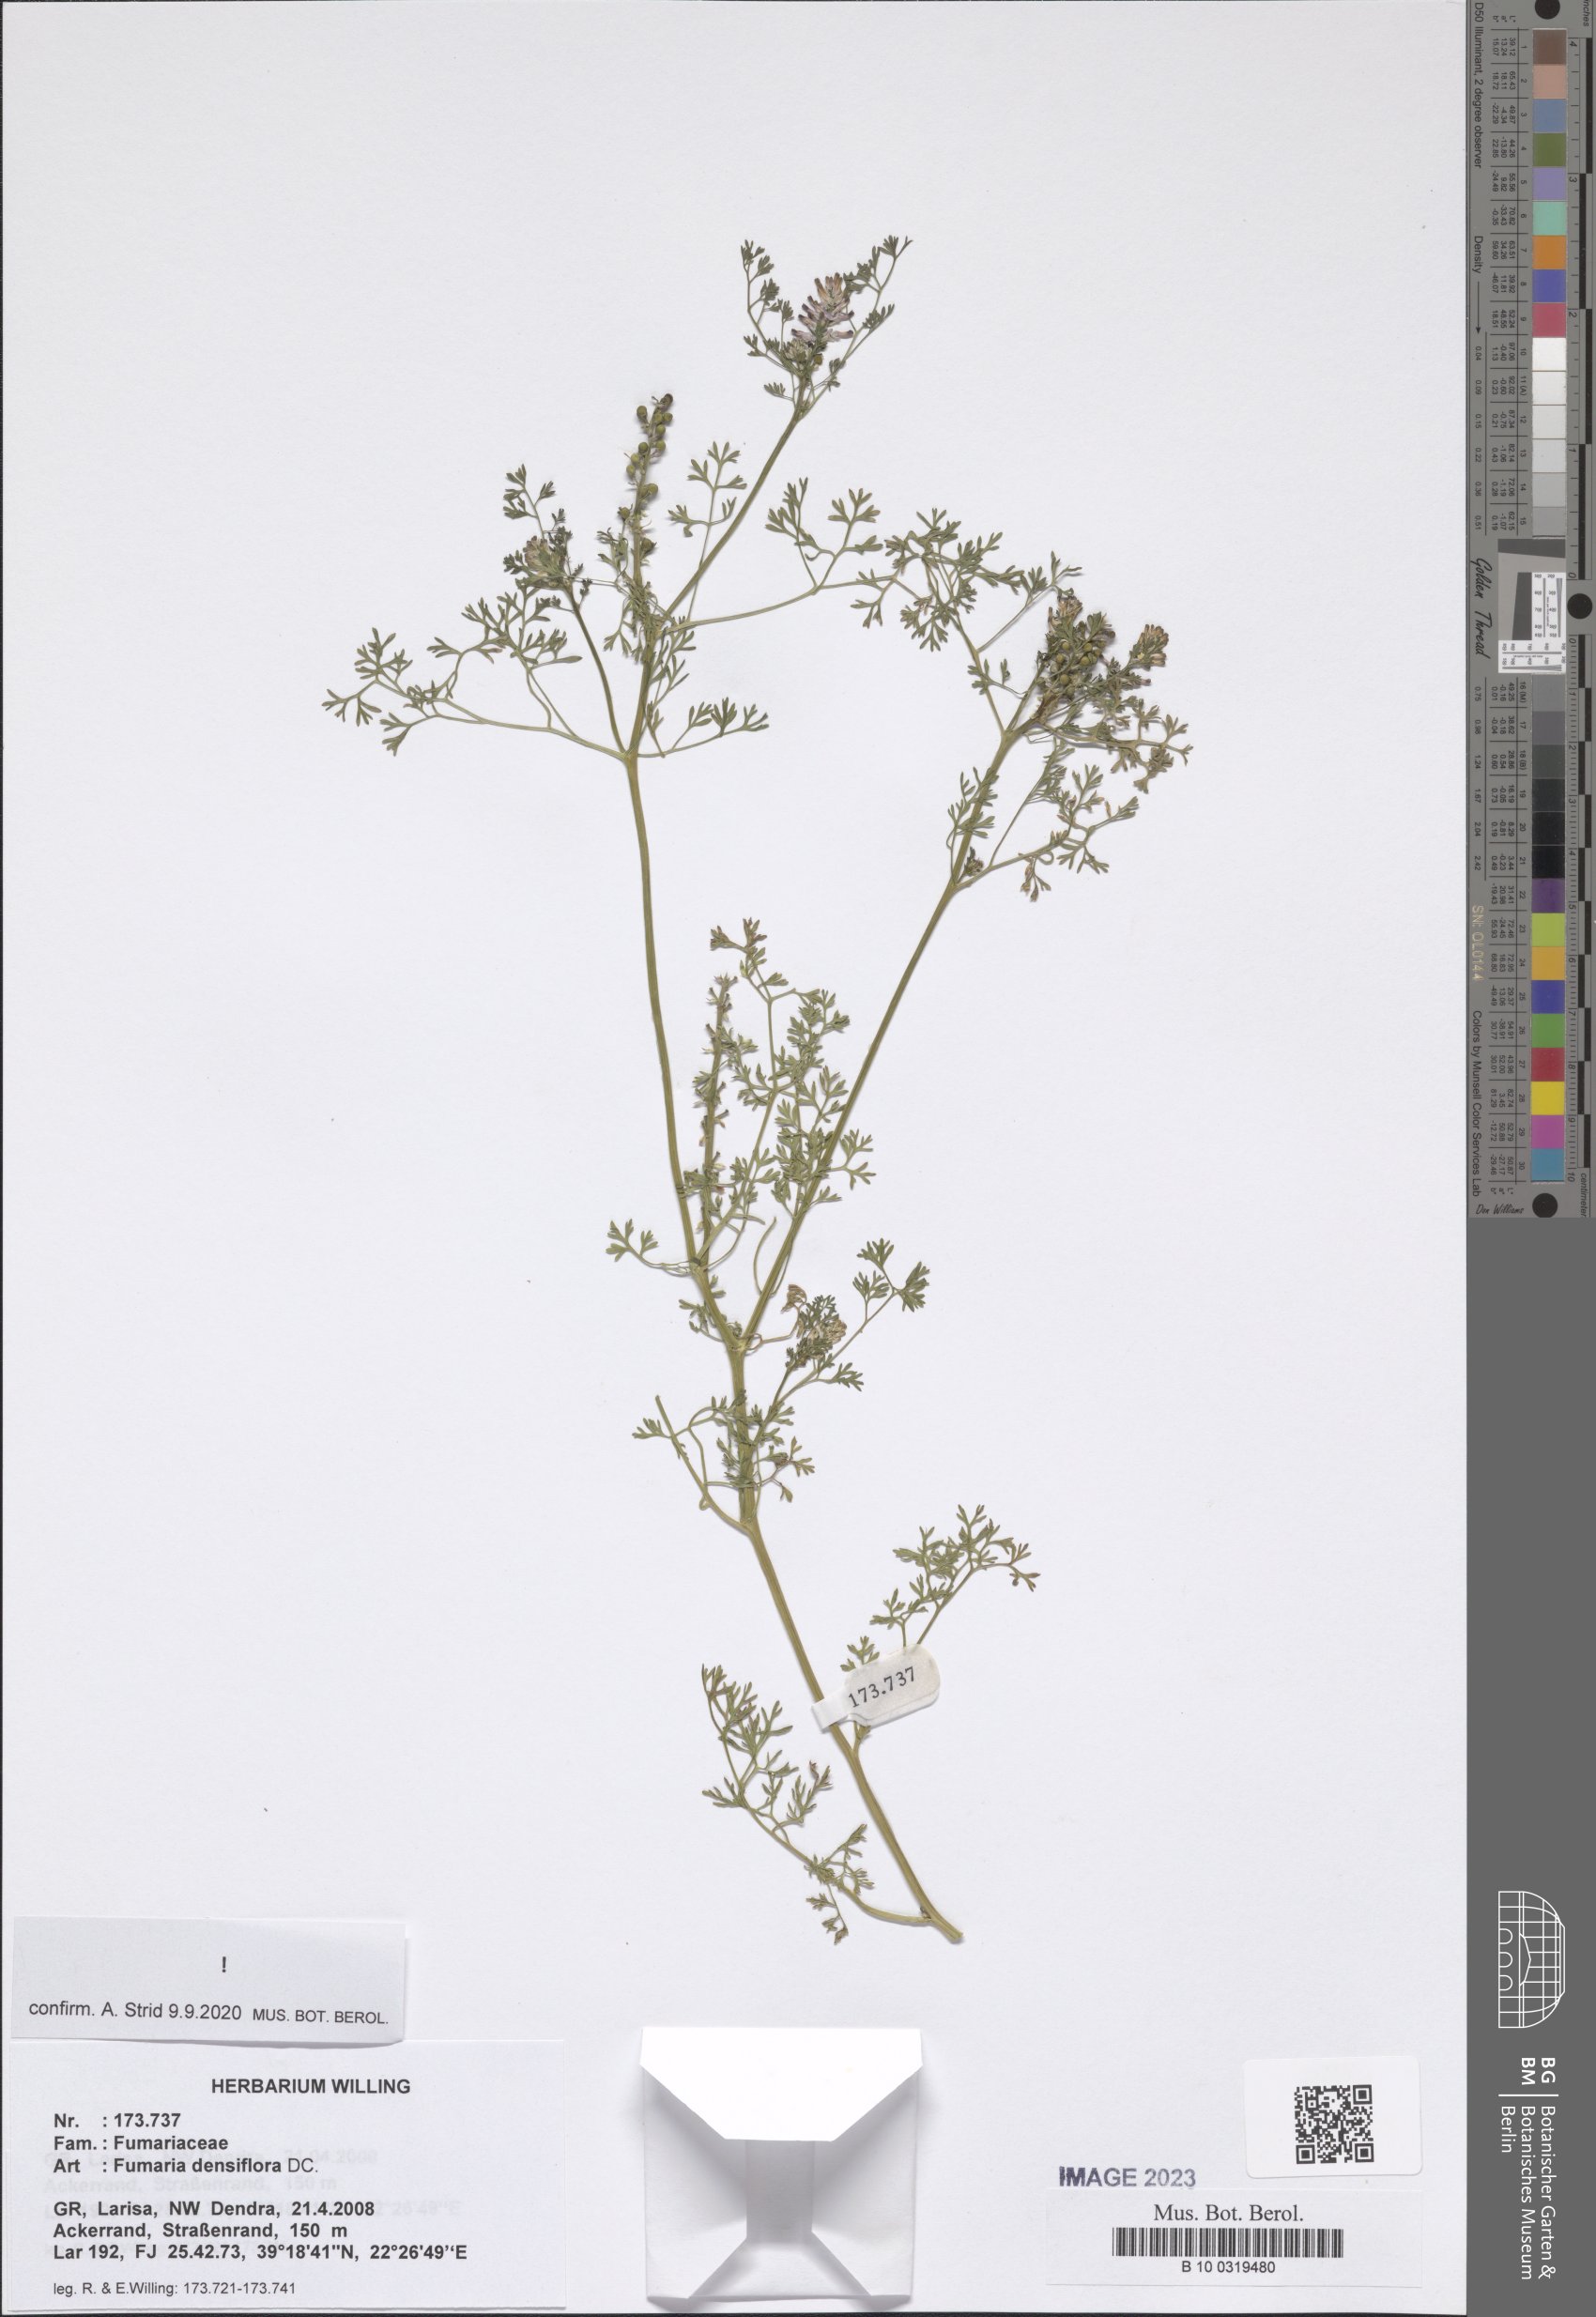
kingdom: Plantae
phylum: Tracheophyta
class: Magnoliopsida
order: Ranunculales
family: Papaveraceae
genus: Fumaria
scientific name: Fumaria densiflora
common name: Dense-flowered fumitory
